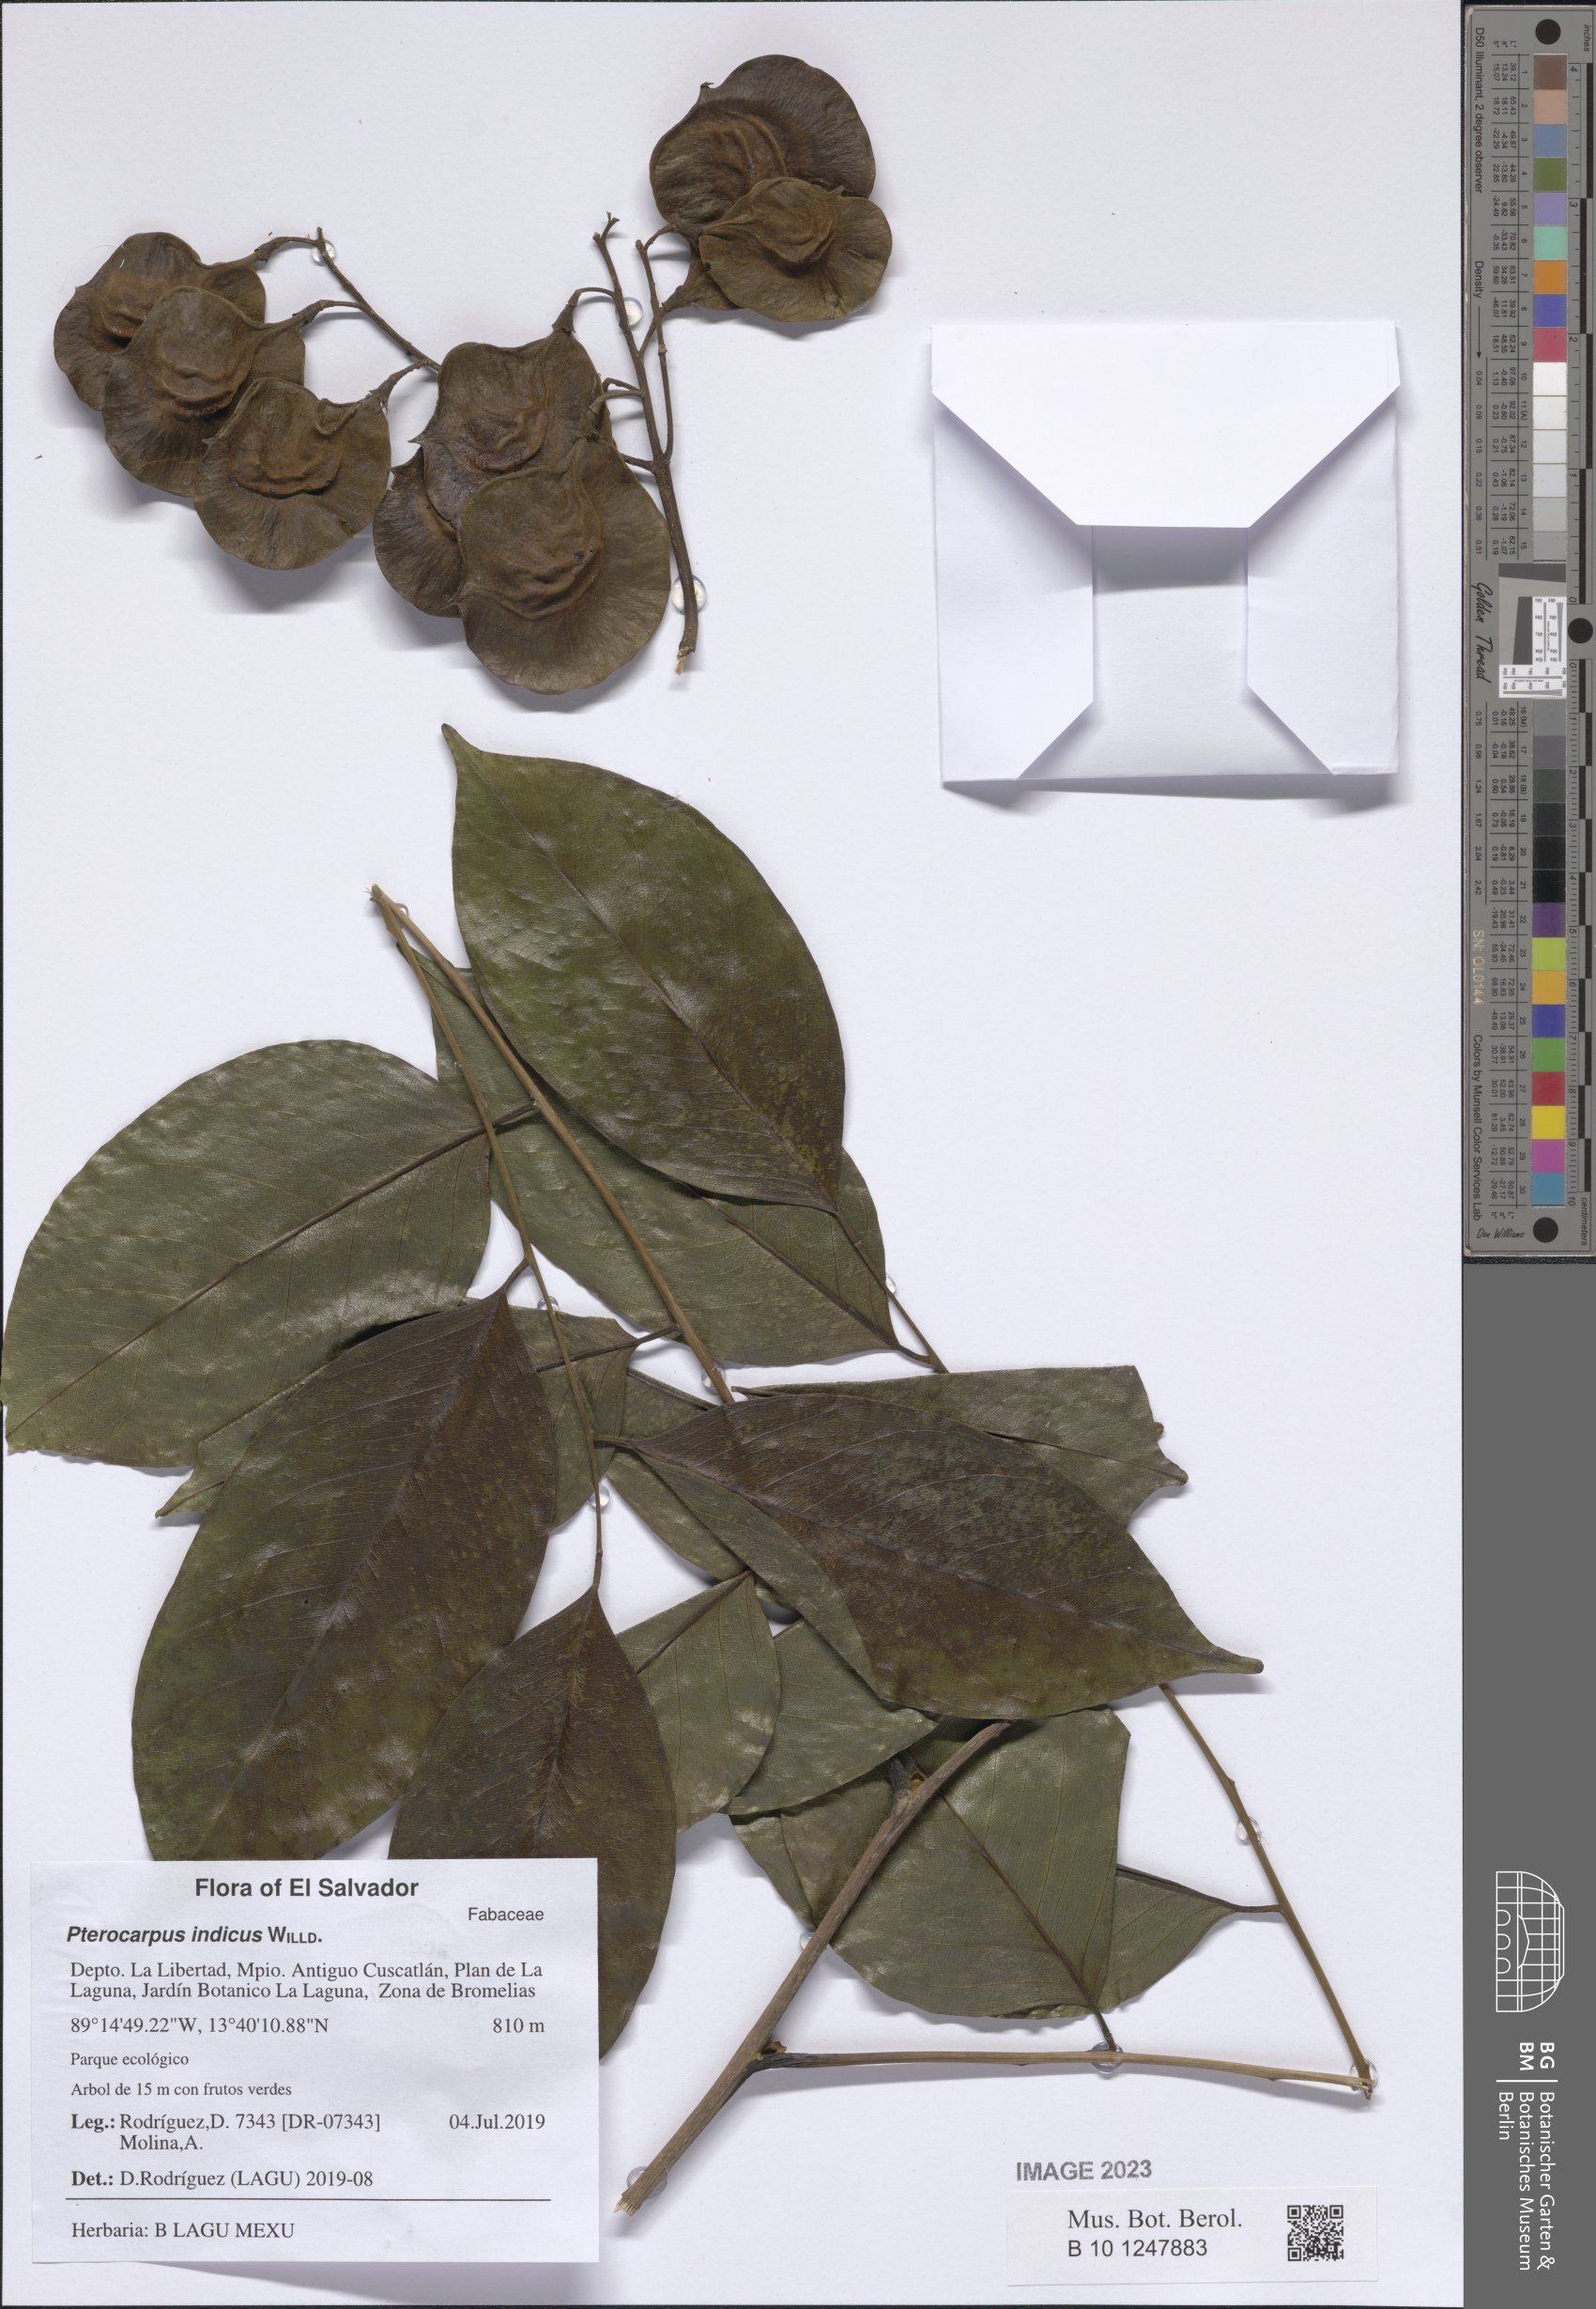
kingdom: Plantae
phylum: Tracheophyta
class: Magnoliopsida
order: Fabales
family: Fabaceae
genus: Pterocarpus
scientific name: Pterocarpus indicus
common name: Burmese rosewood
